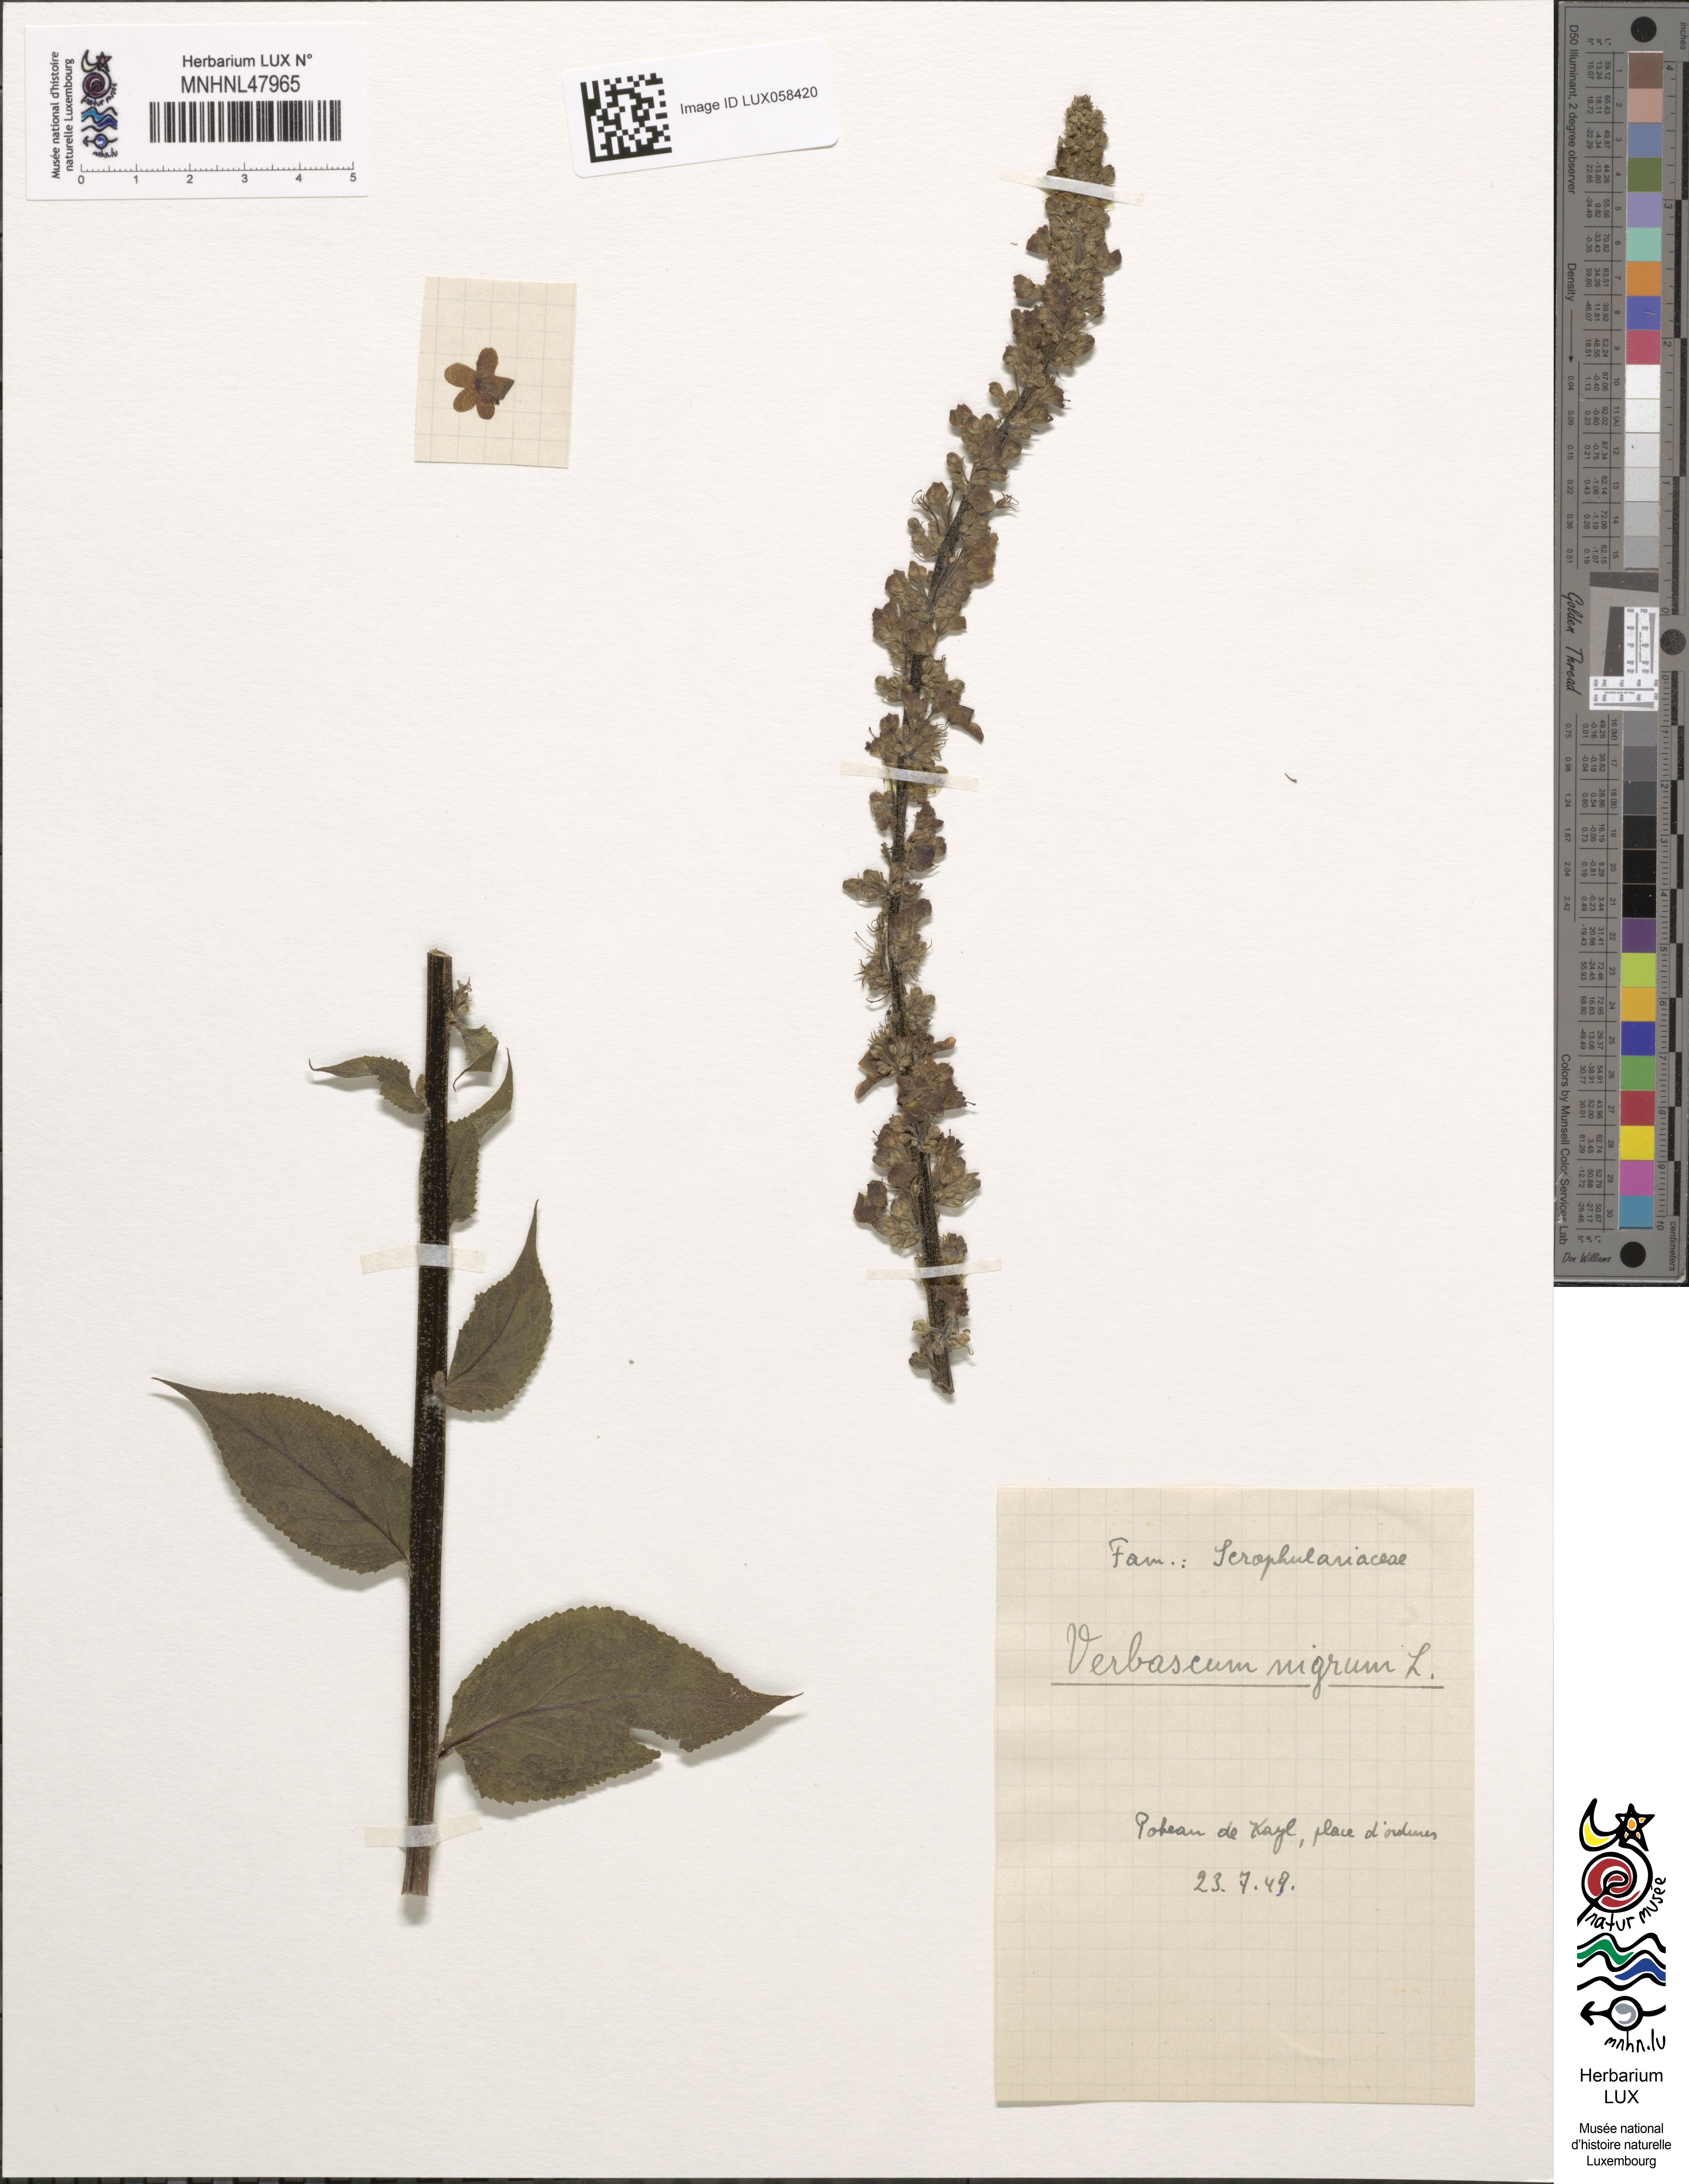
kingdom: Plantae
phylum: Tracheophyta
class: Magnoliopsida
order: Lamiales
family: Scrophulariaceae
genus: Verbascum
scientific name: Verbascum nigrum
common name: Dark mullein
